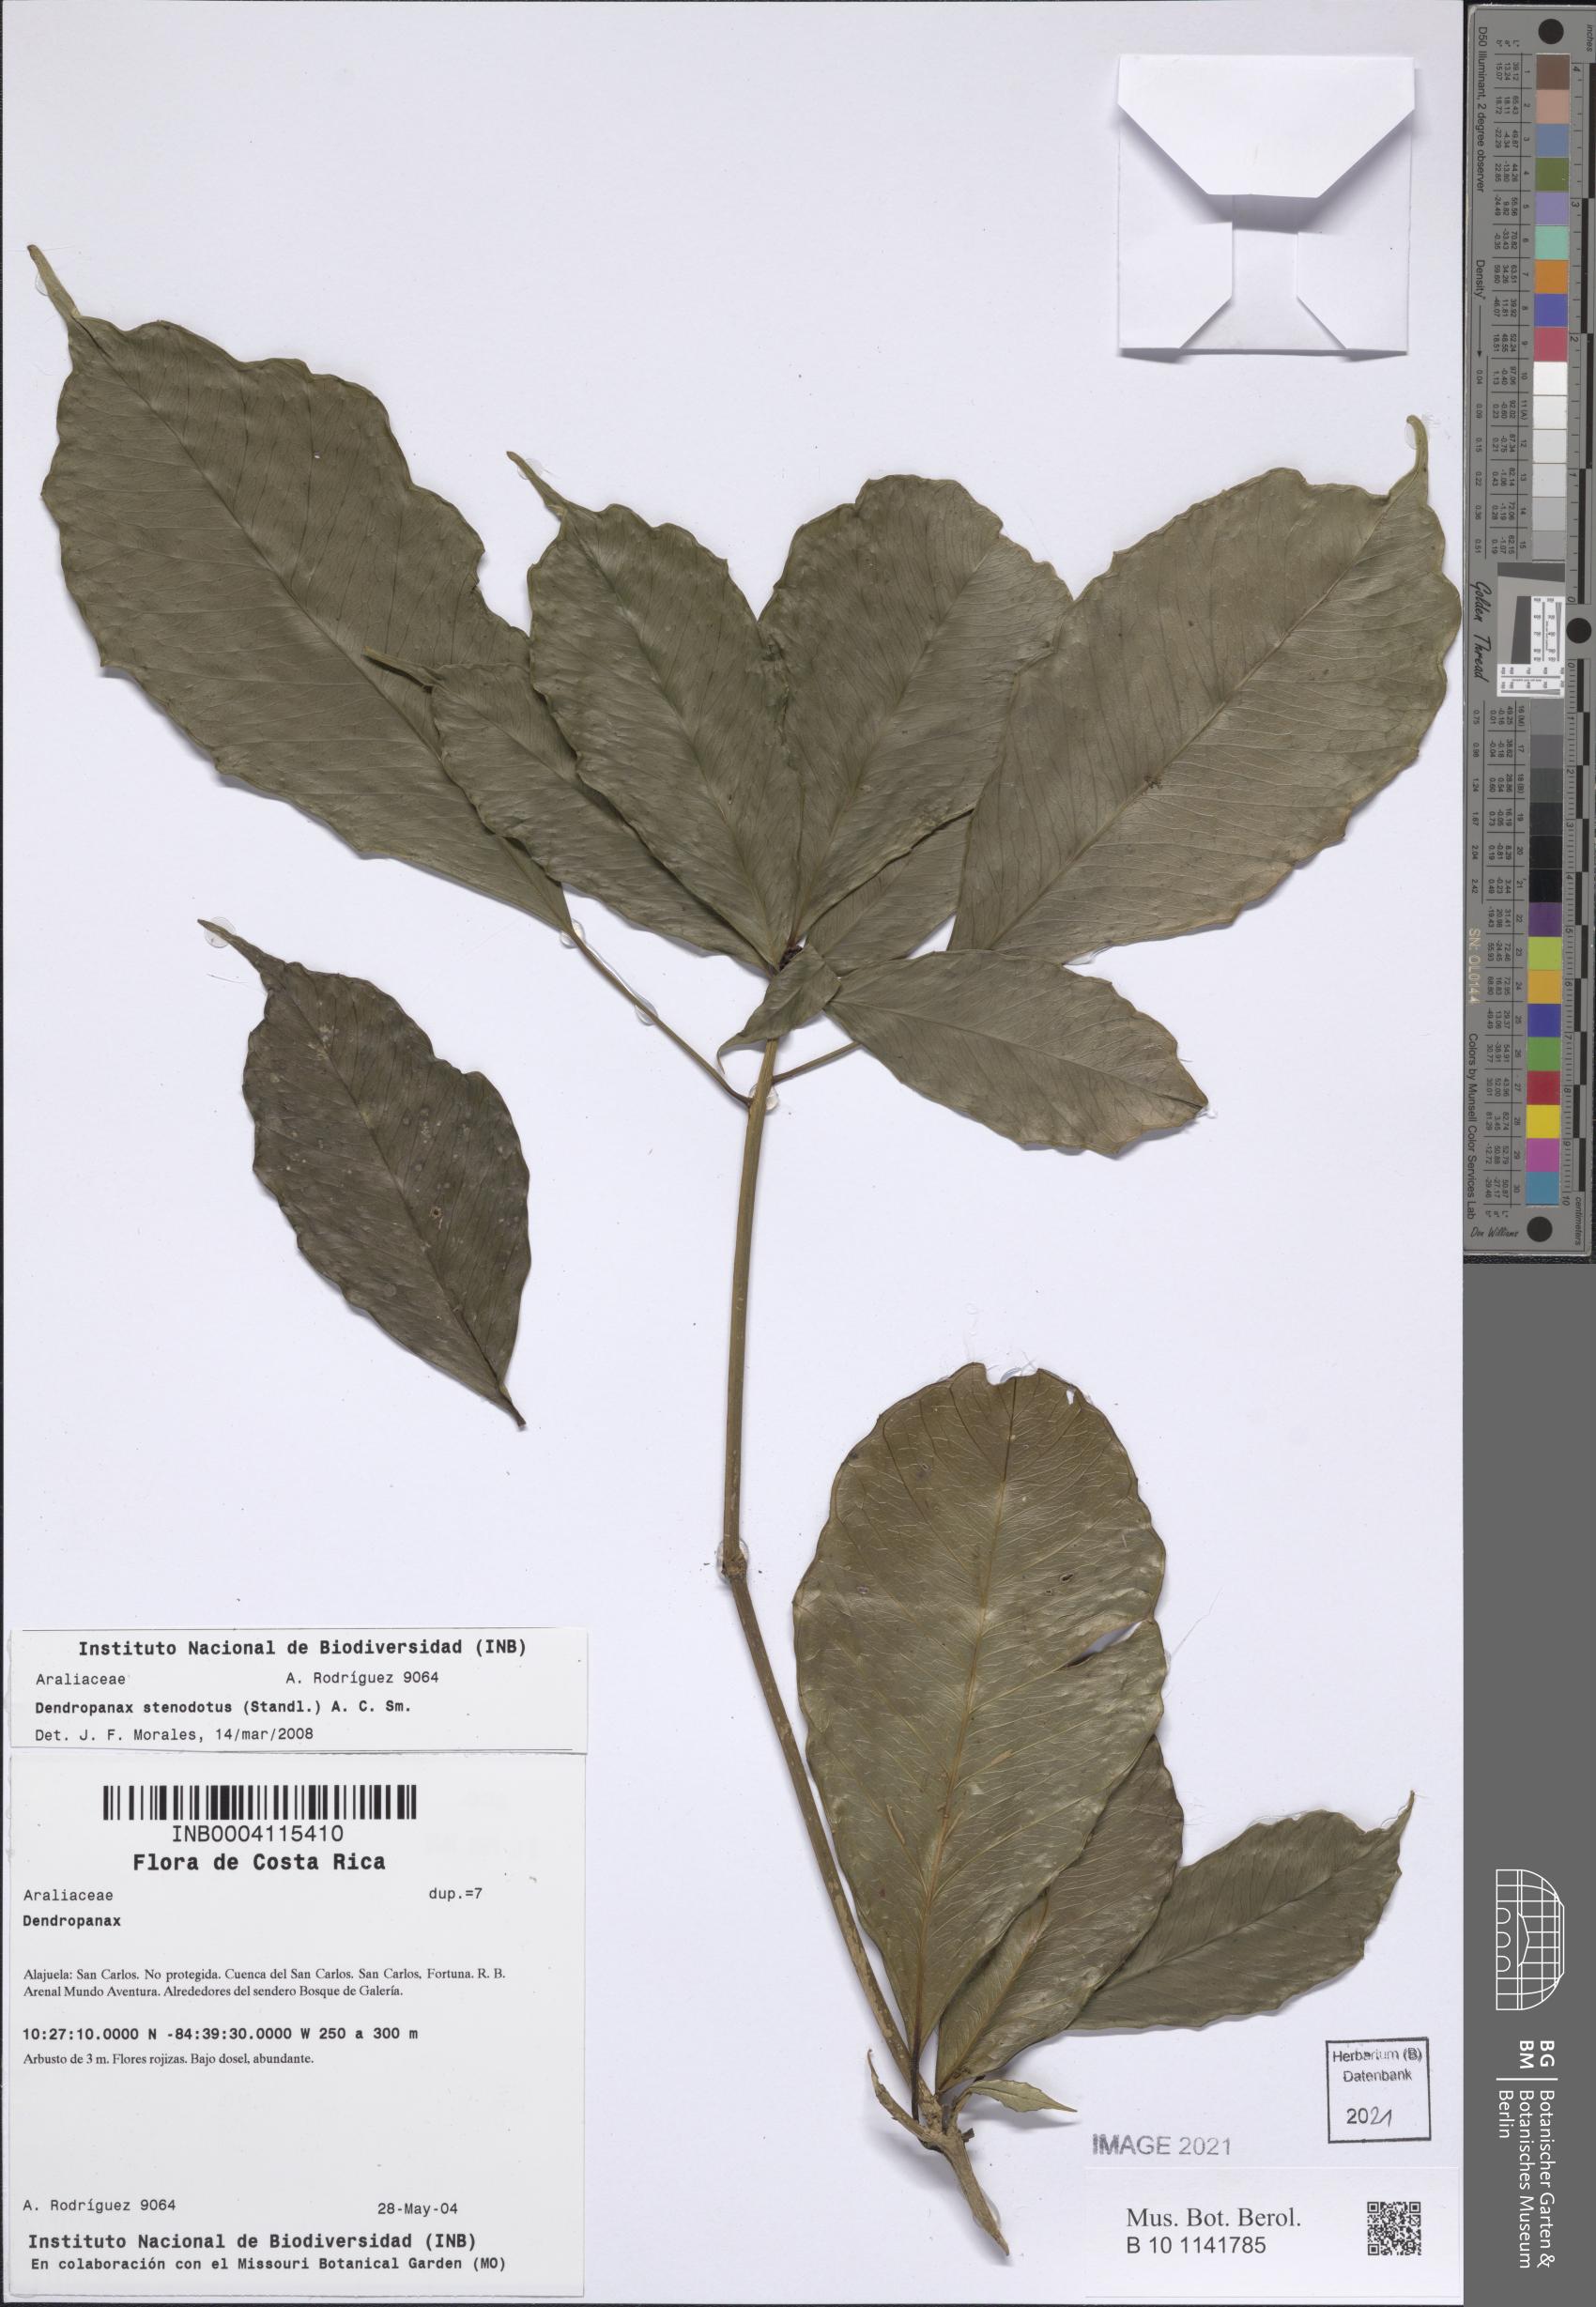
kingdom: Plantae
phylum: Tracheophyta
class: Magnoliopsida
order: Apiales
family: Araliaceae
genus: Dendropanax
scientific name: Dendropanax alaris
